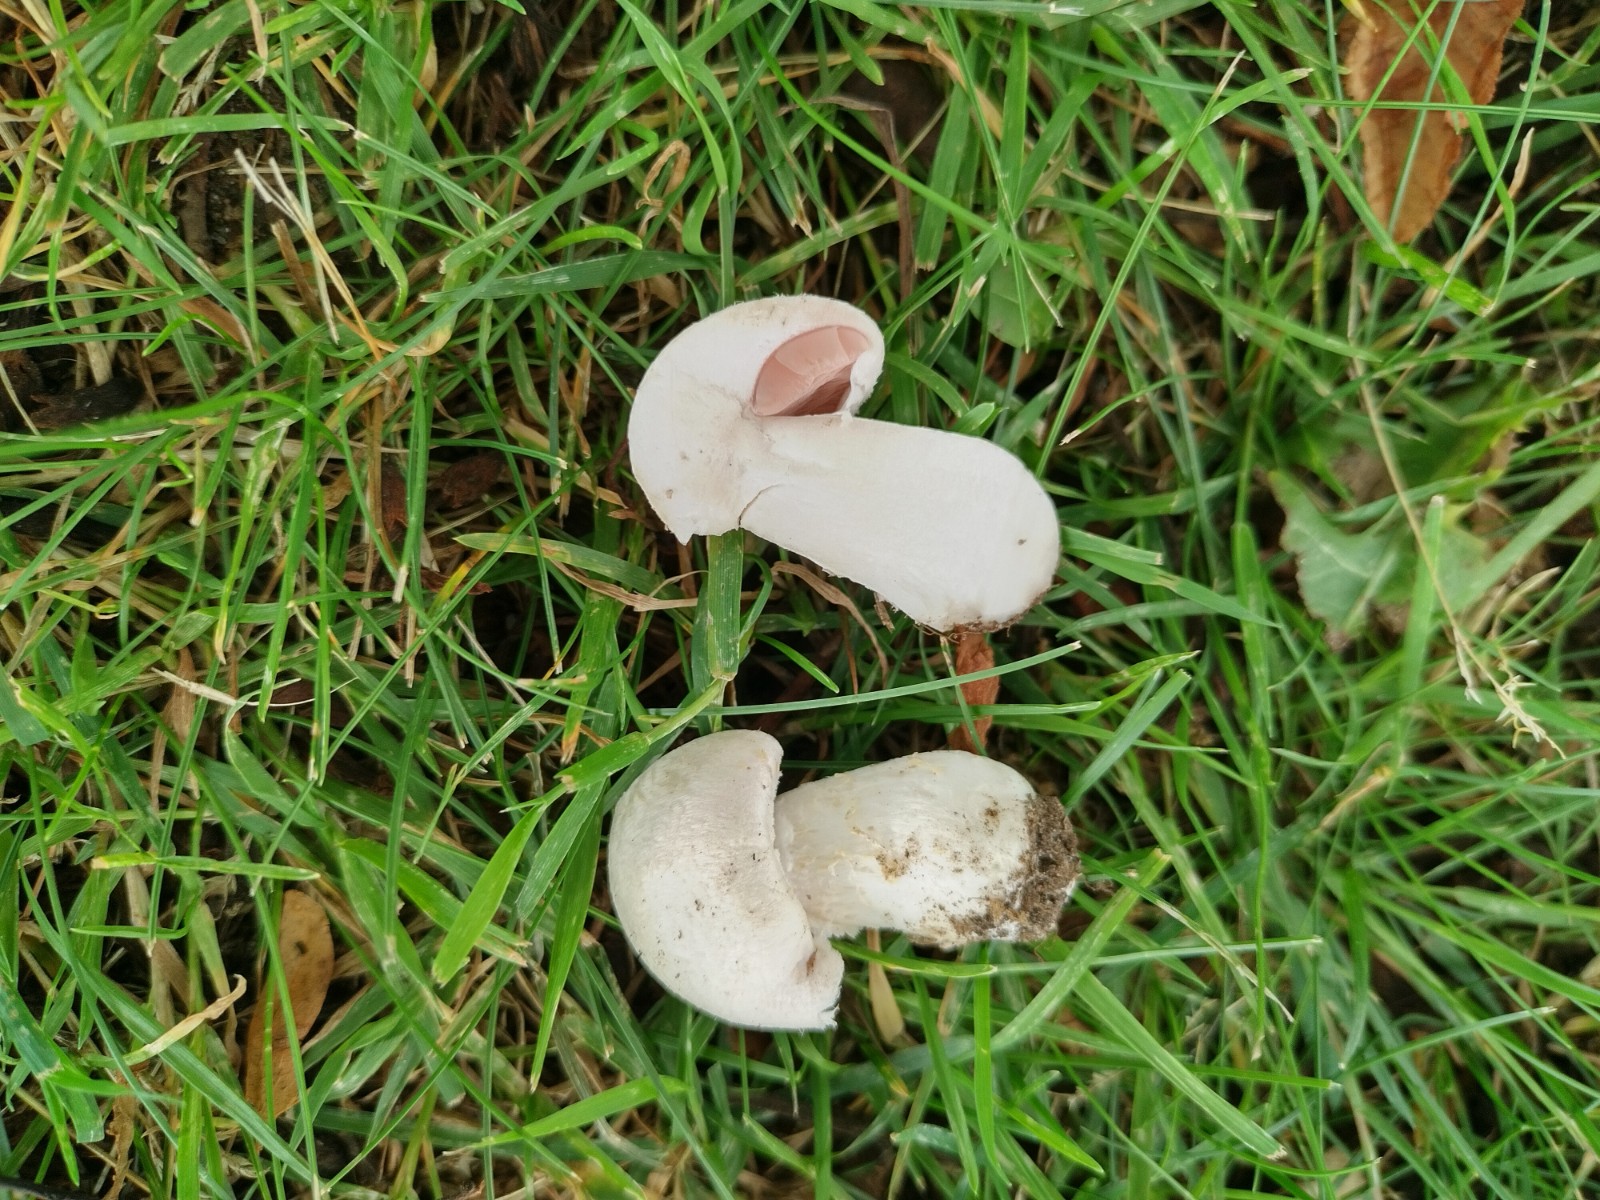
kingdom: Fungi
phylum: Basidiomycota
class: Agaricomycetes
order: Agaricales
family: Agaricaceae
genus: Agaricus
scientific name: Agaricus campestris
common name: mark-champignon
